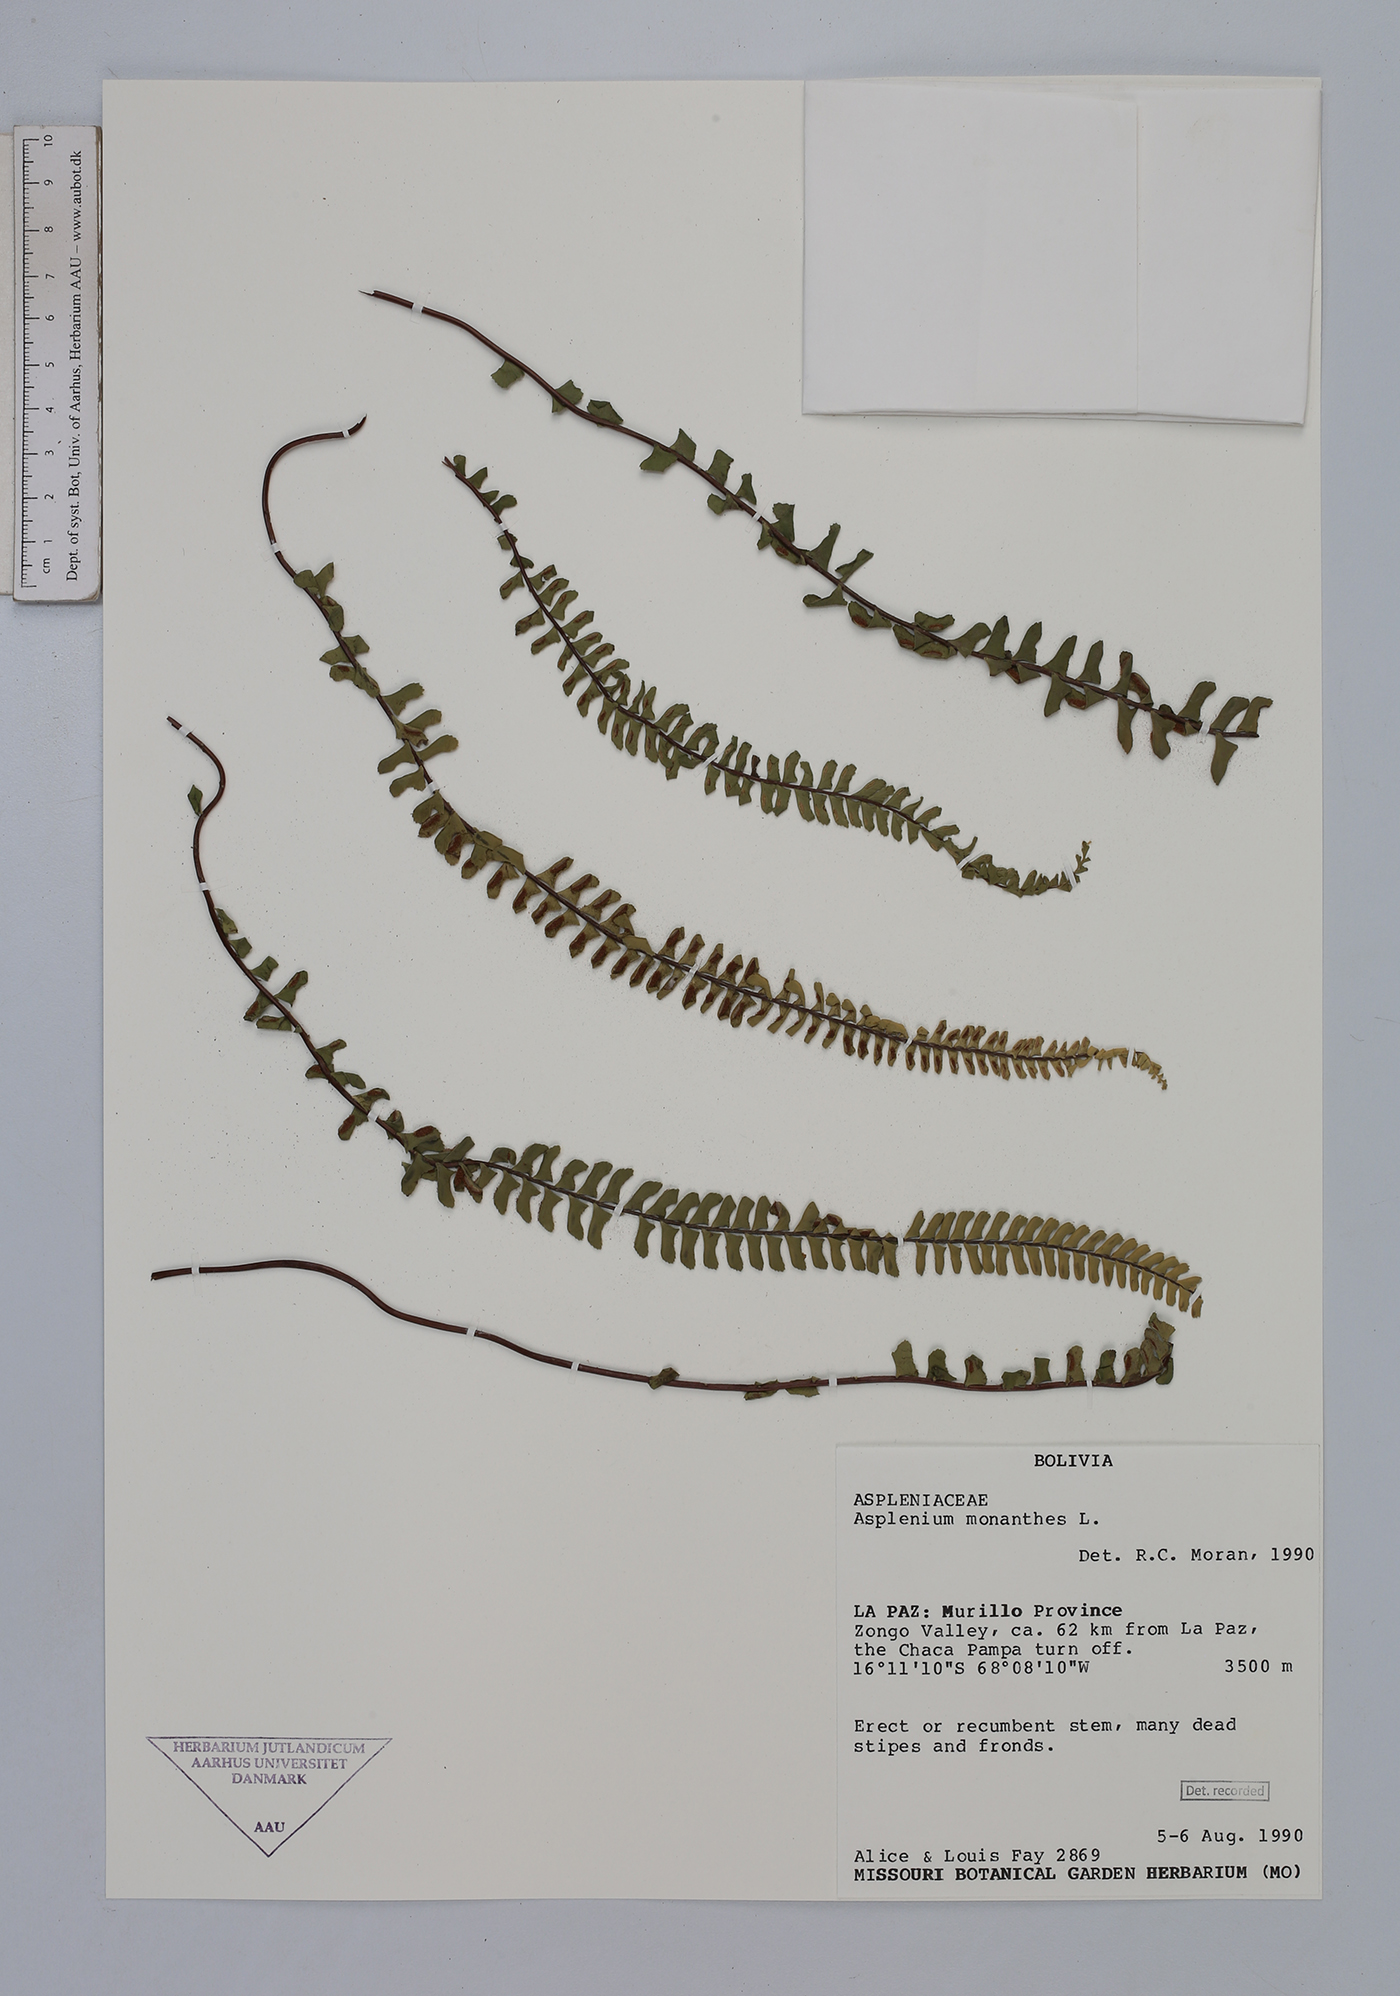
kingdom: Plantae
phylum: Tracheophyta
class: Polypodiopsida
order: Polypodiales
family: Aspleniaceae
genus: Asplenium
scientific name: Asplenium monanthes
